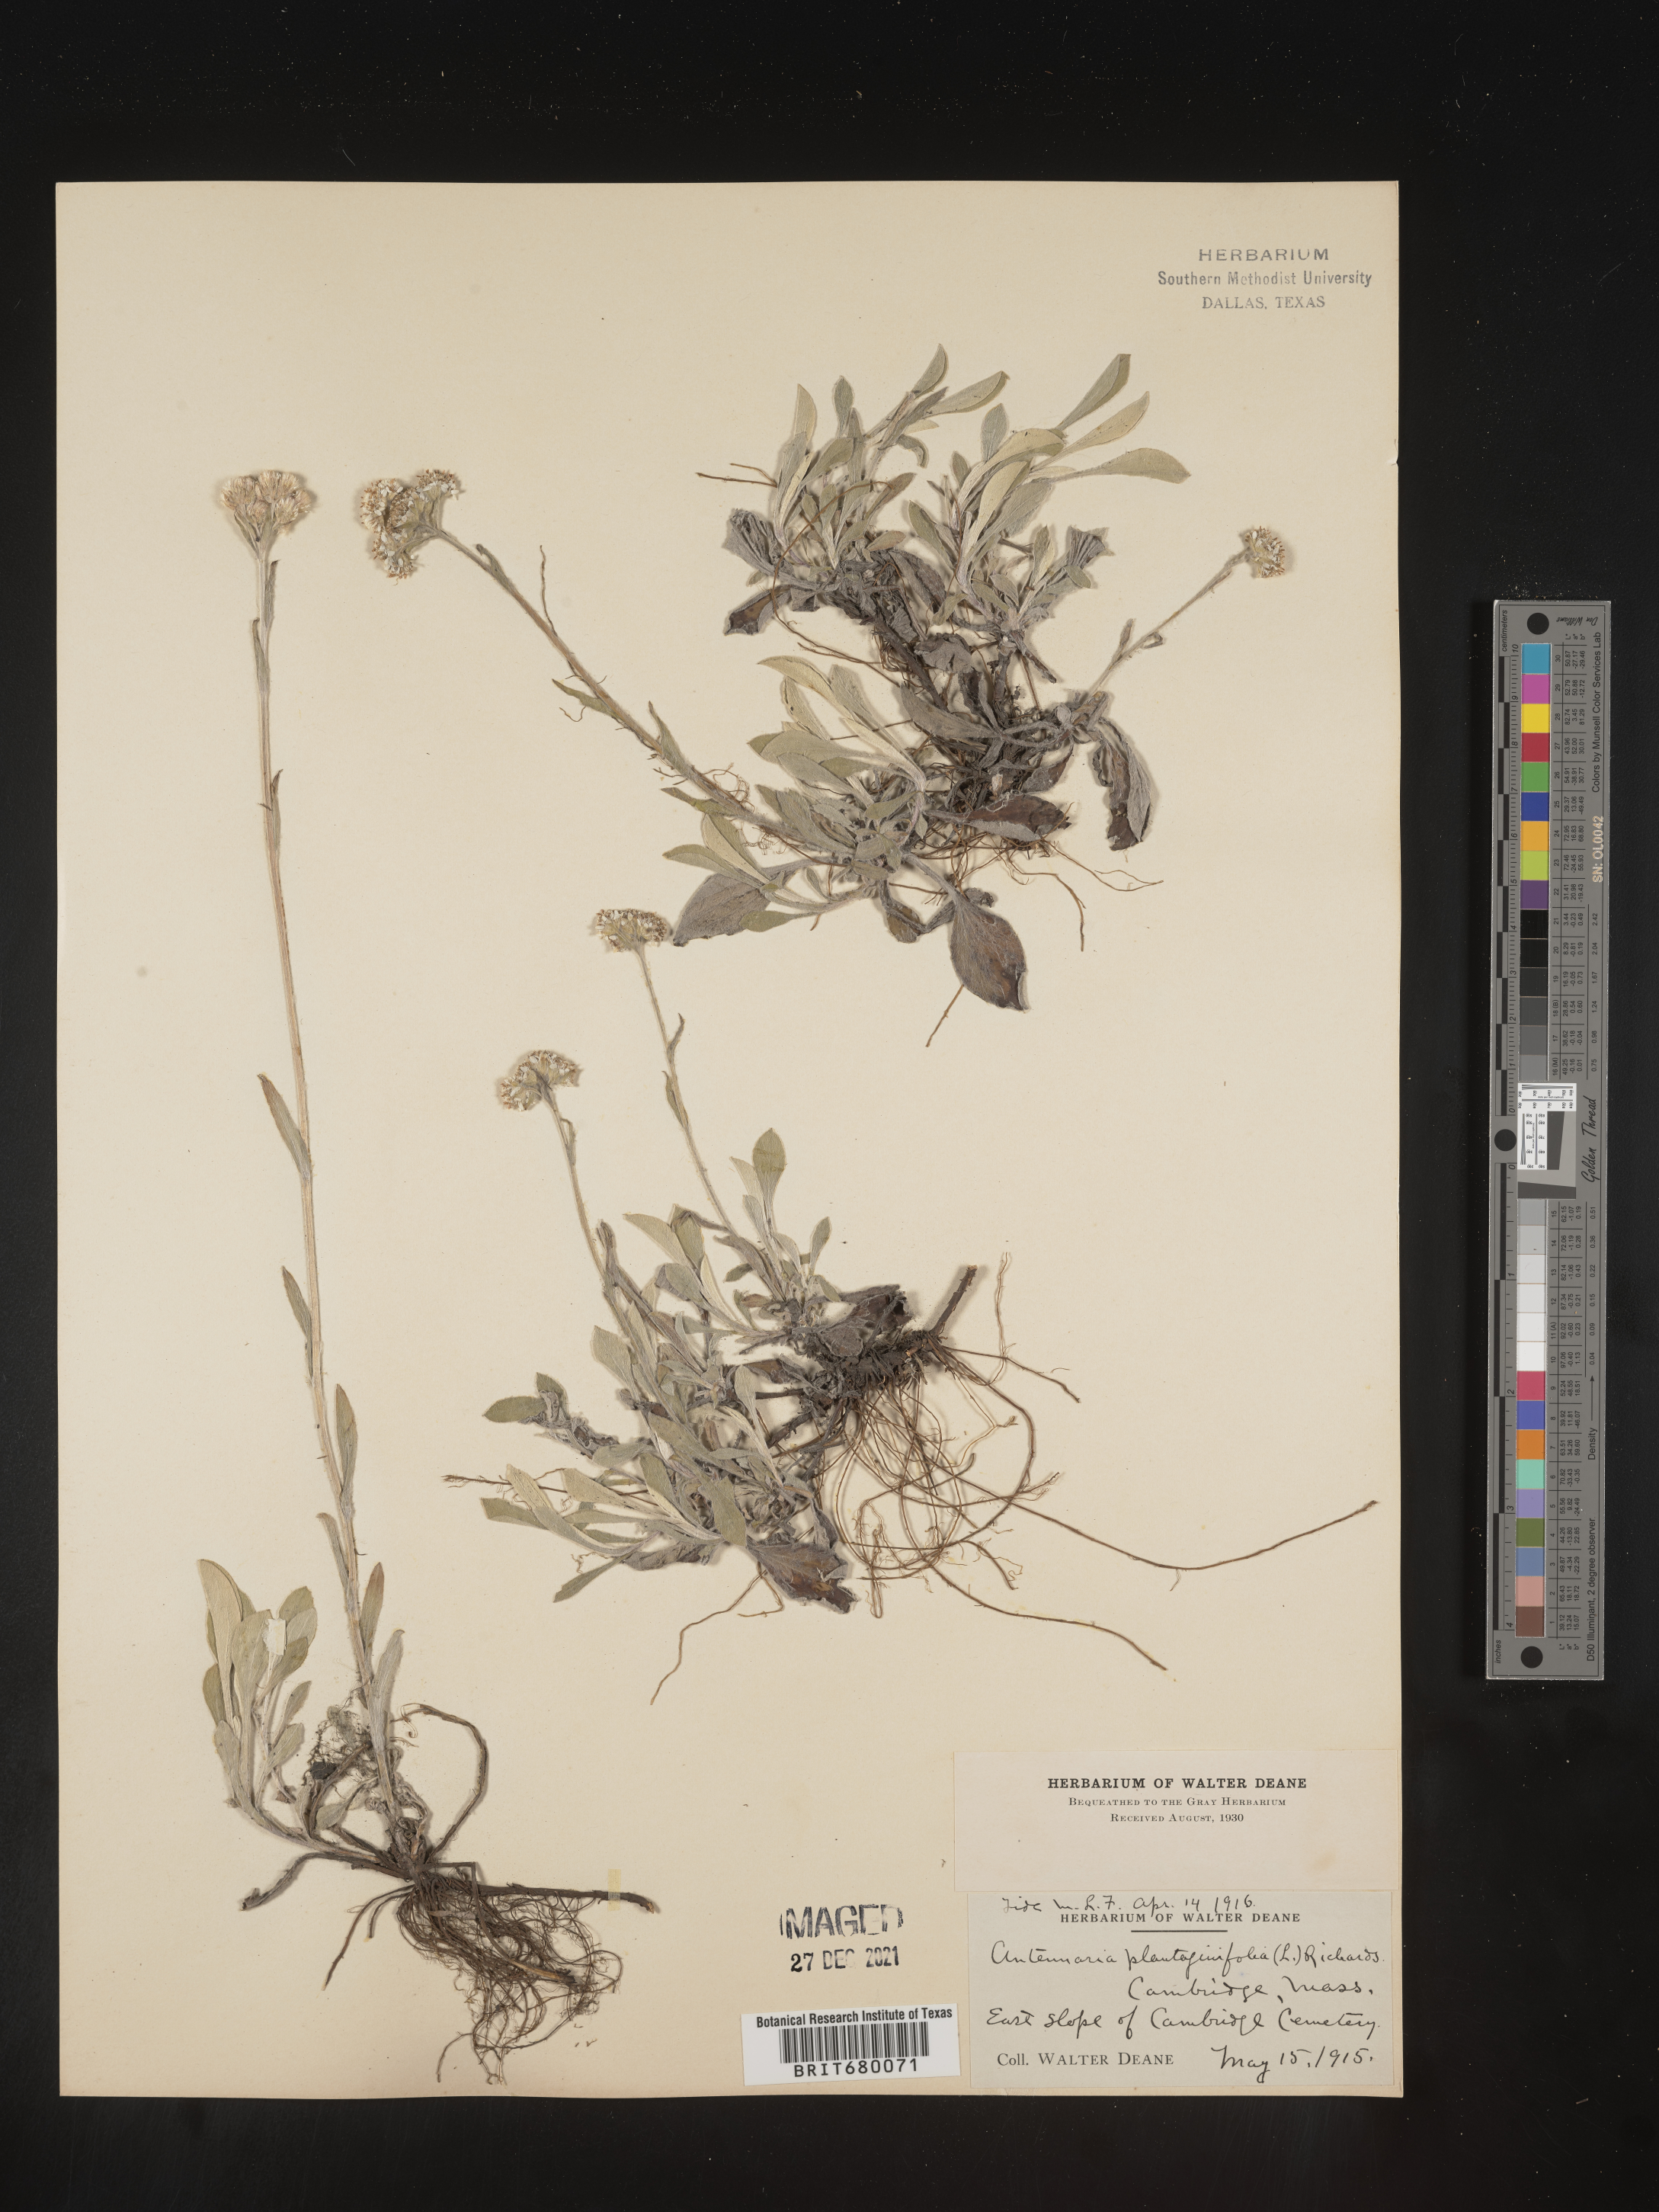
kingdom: Plantae
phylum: Tracheophyta
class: Magnoliopsida
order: Asterales
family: Asteraceae
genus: Antennaria
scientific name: Antennaria plantaginifolia
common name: Plantain-leaved pussytoes
